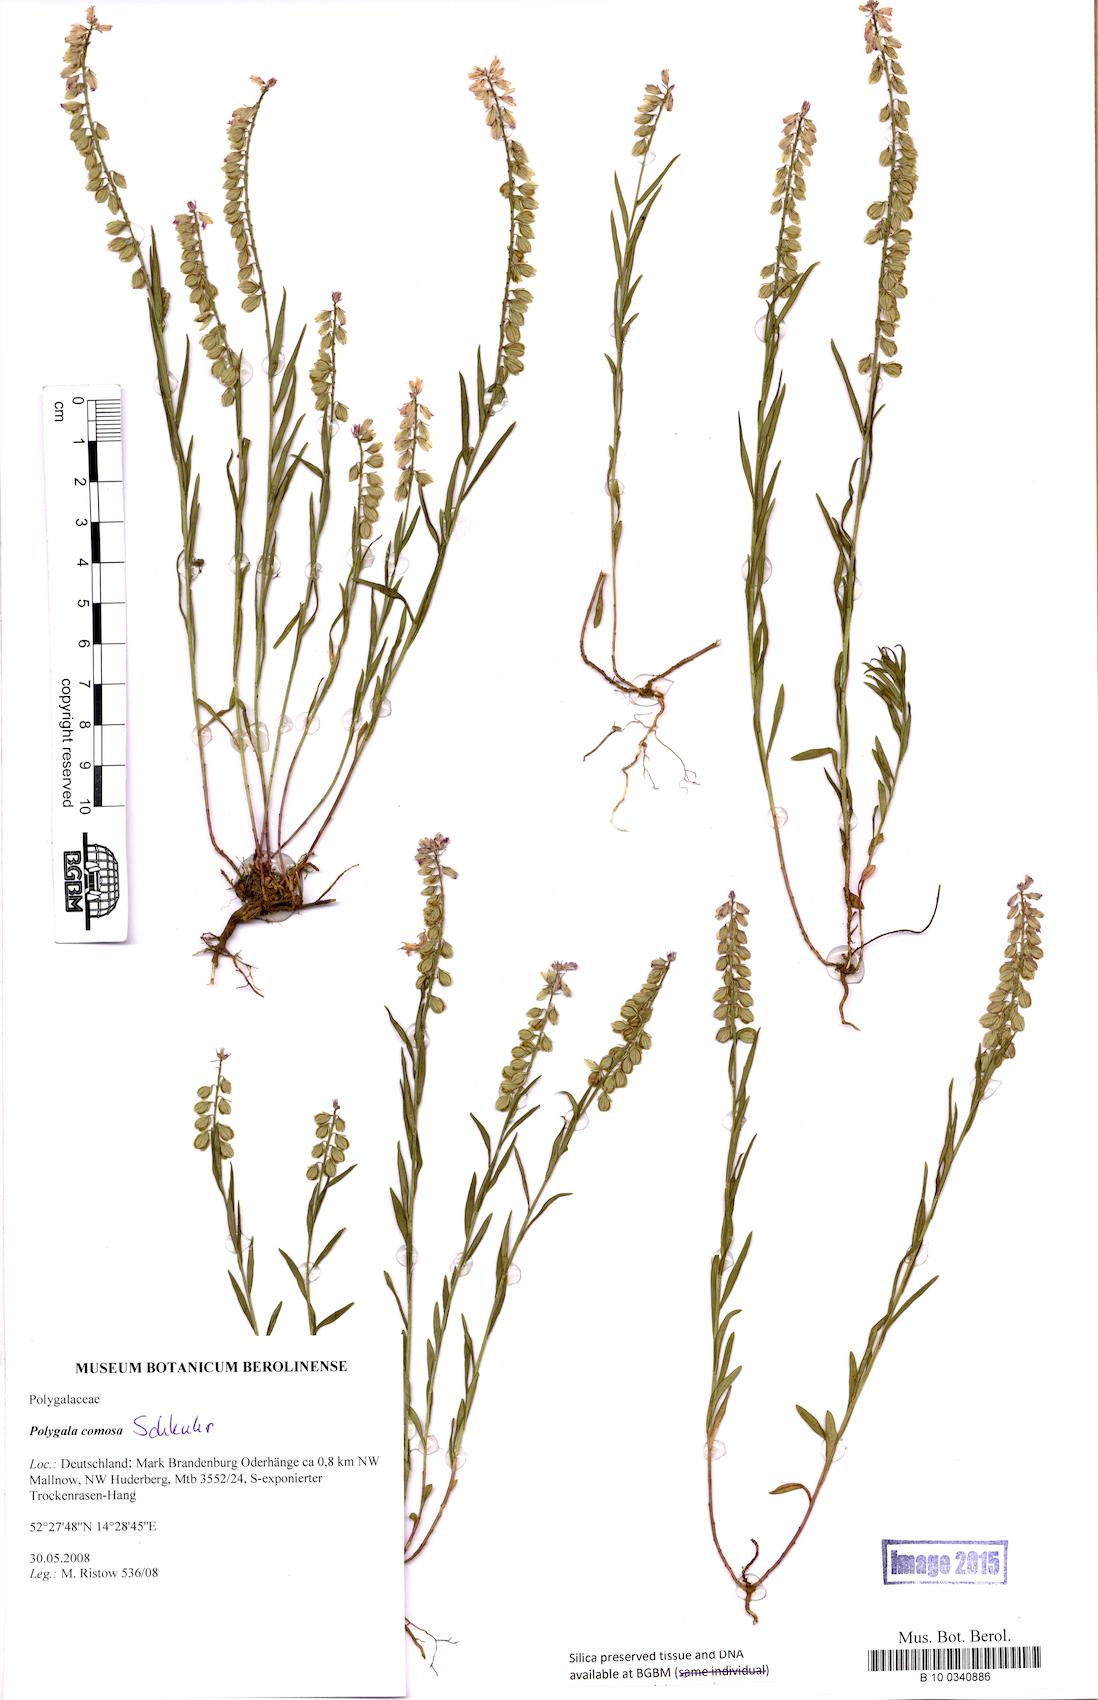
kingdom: Plantae
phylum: Tracheophyta
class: Liliopsida
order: Poales
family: Cyperaceae
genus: Carex
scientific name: Carex remota
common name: Remote sedge
